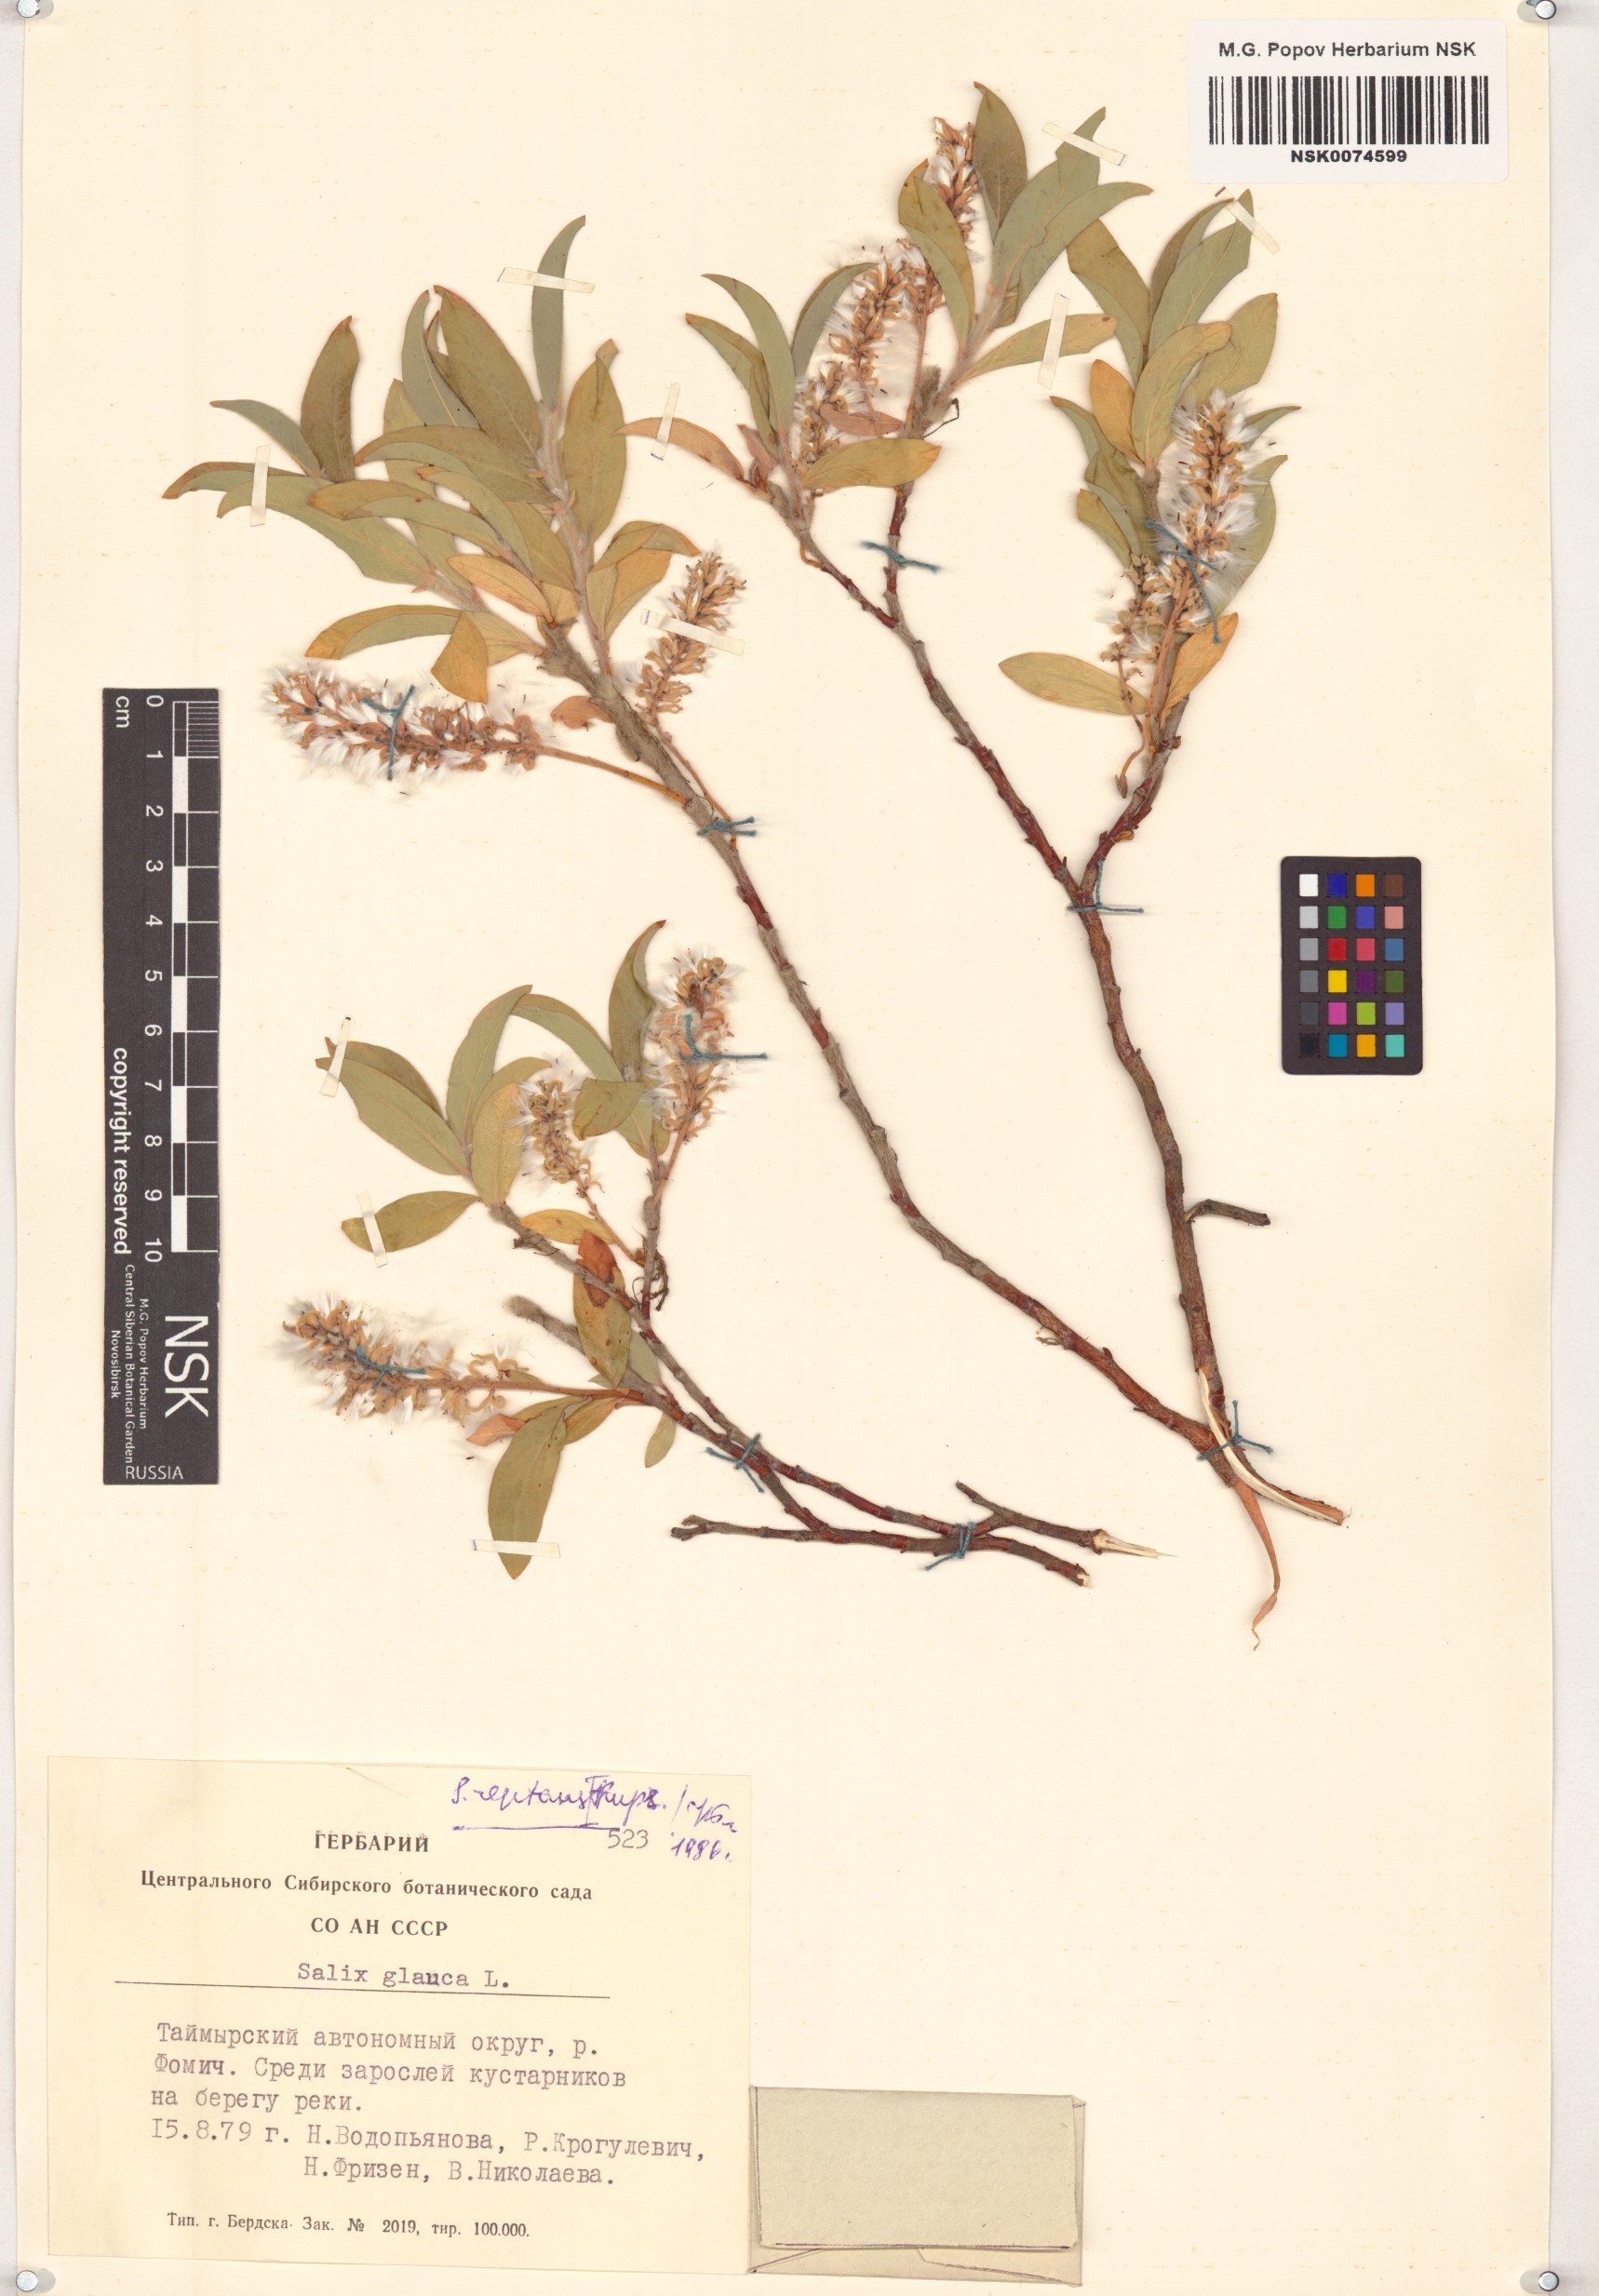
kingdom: Plantae
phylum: Tracheophyta
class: Magnoliopsida
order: Malpighiales
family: Salicaceae
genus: Salix
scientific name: Salix glauca
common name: Glaucous willow
